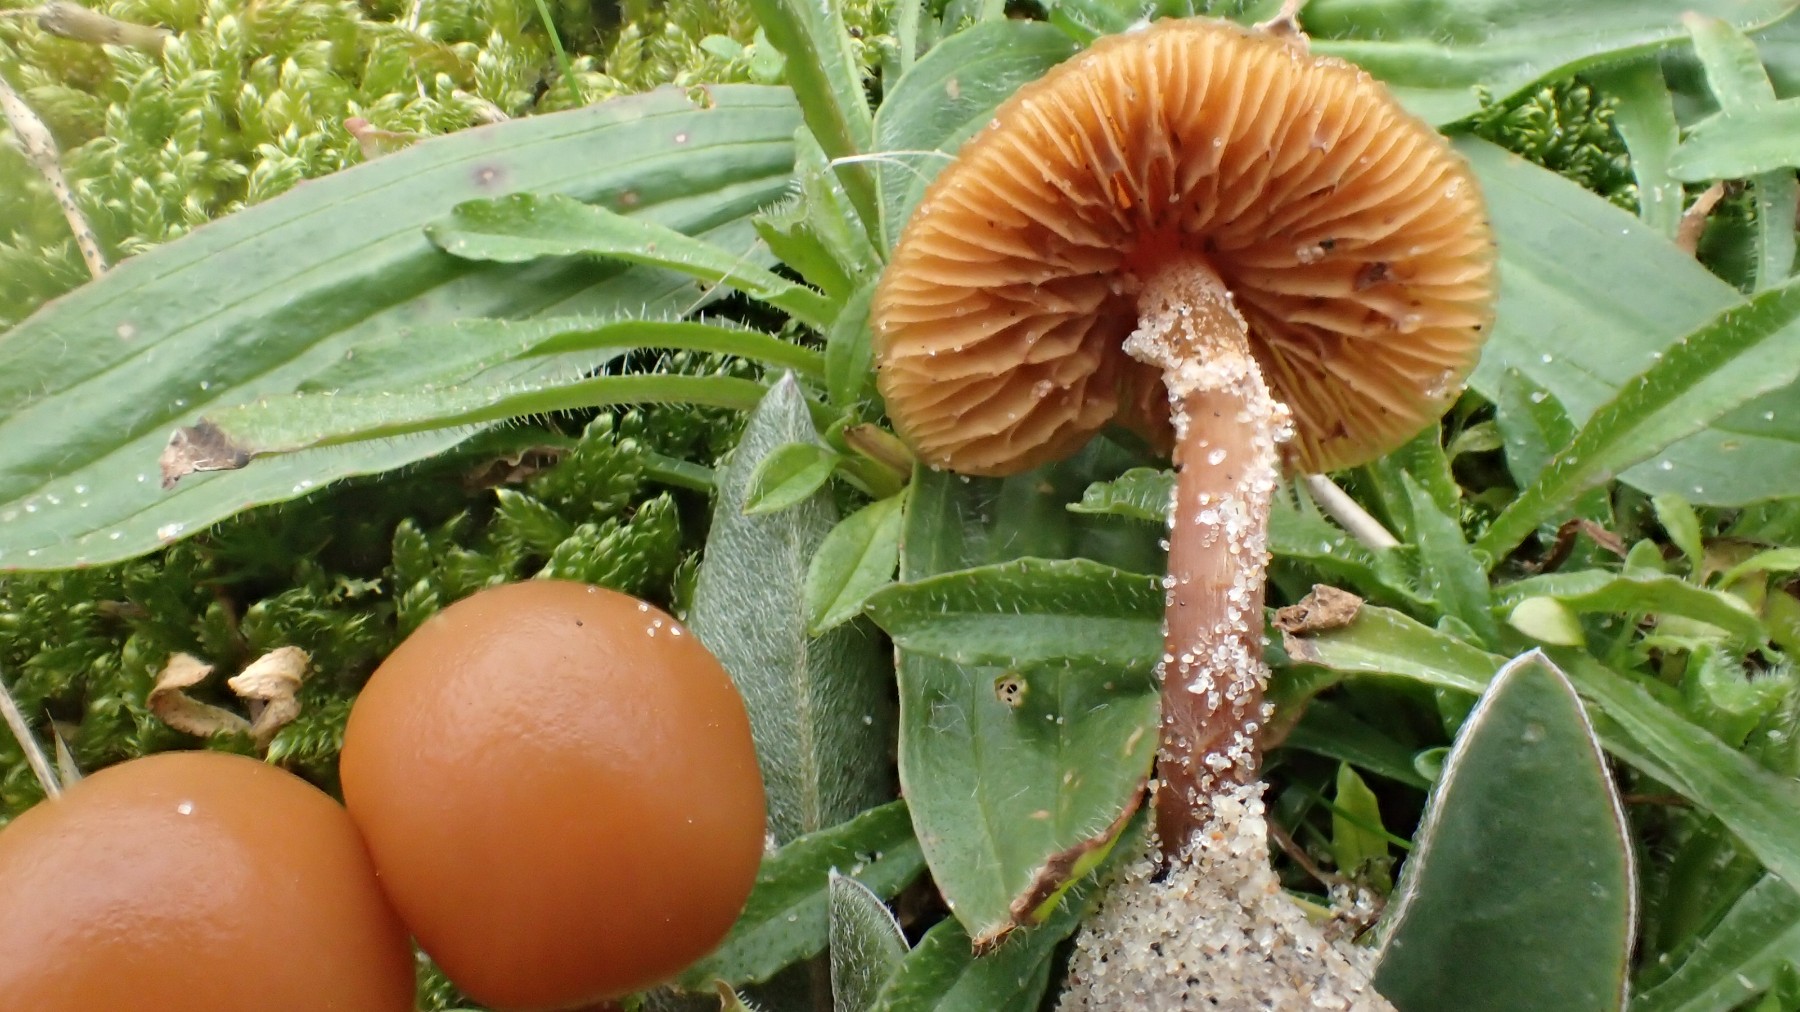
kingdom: Fungi
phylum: Basidiomycota
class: Agaricomycetes
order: Agaricales
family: Hymenogastraceae
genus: Galerina
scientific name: Galerina marginata
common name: randbæltet hjelmhat
